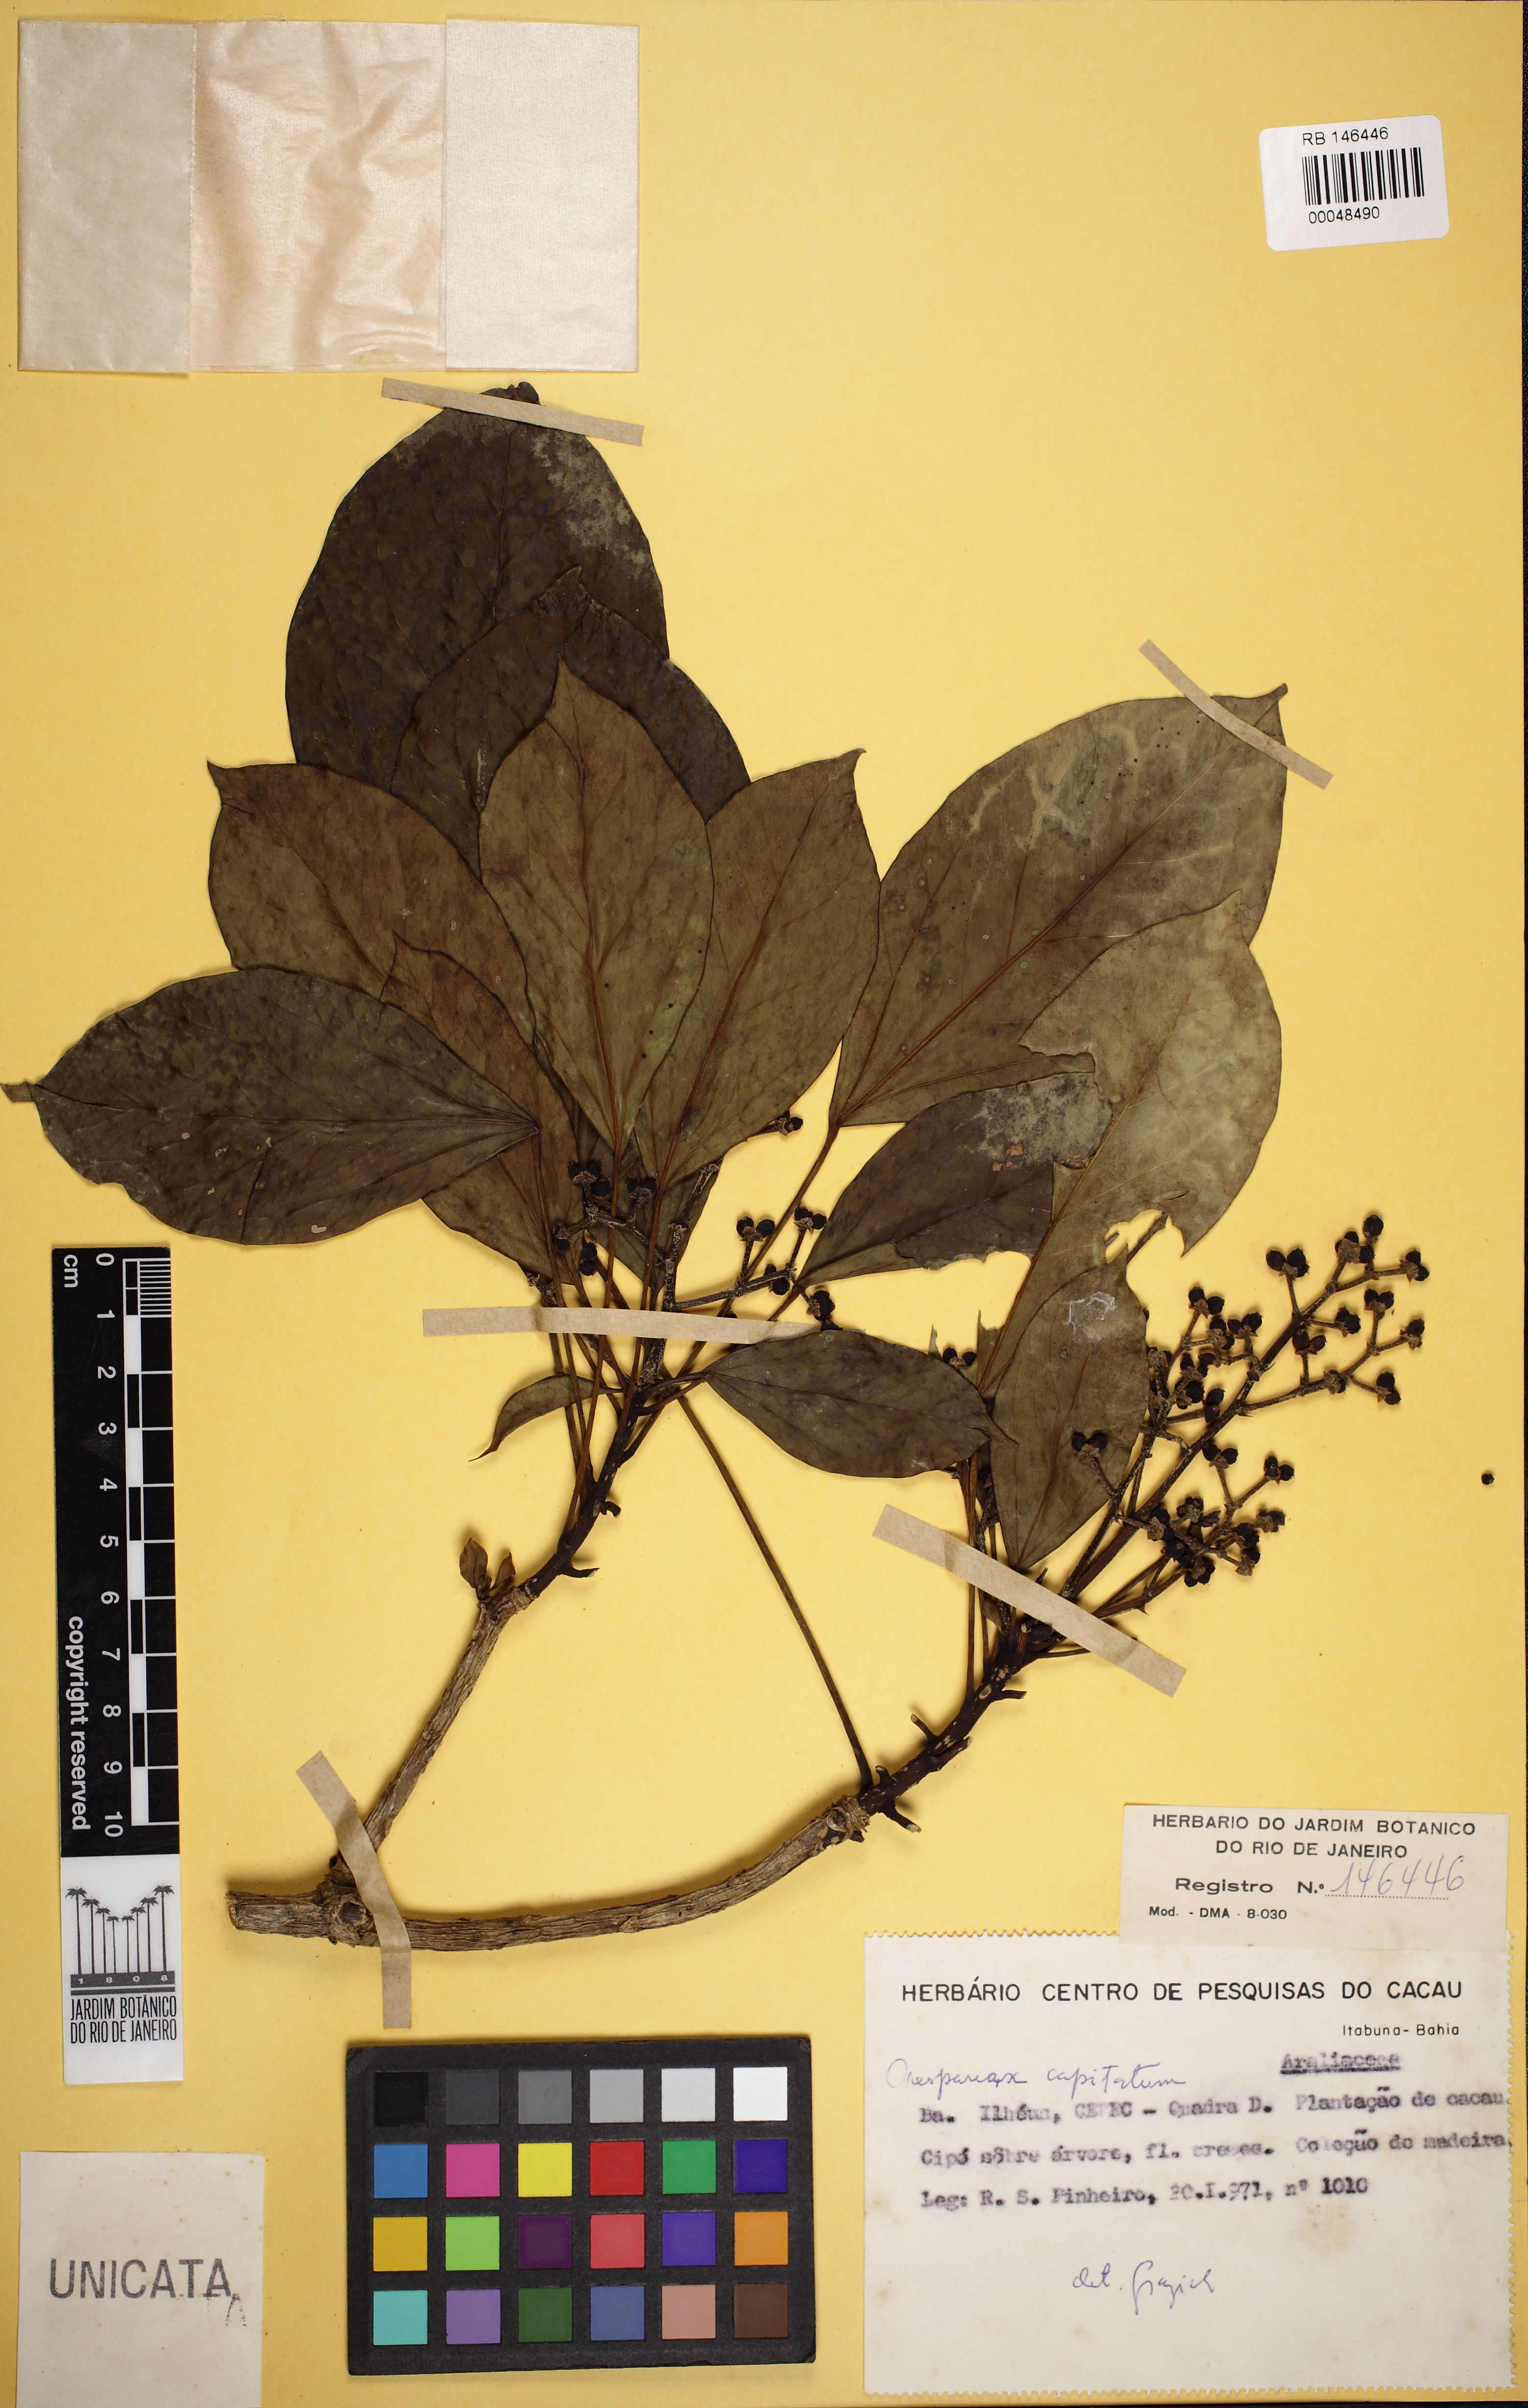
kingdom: Plantae
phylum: Tracheophyta
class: Magnoliopsida
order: Apiales
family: Araliaceae
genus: Oreopanax
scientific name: Oreopanax capitatus
